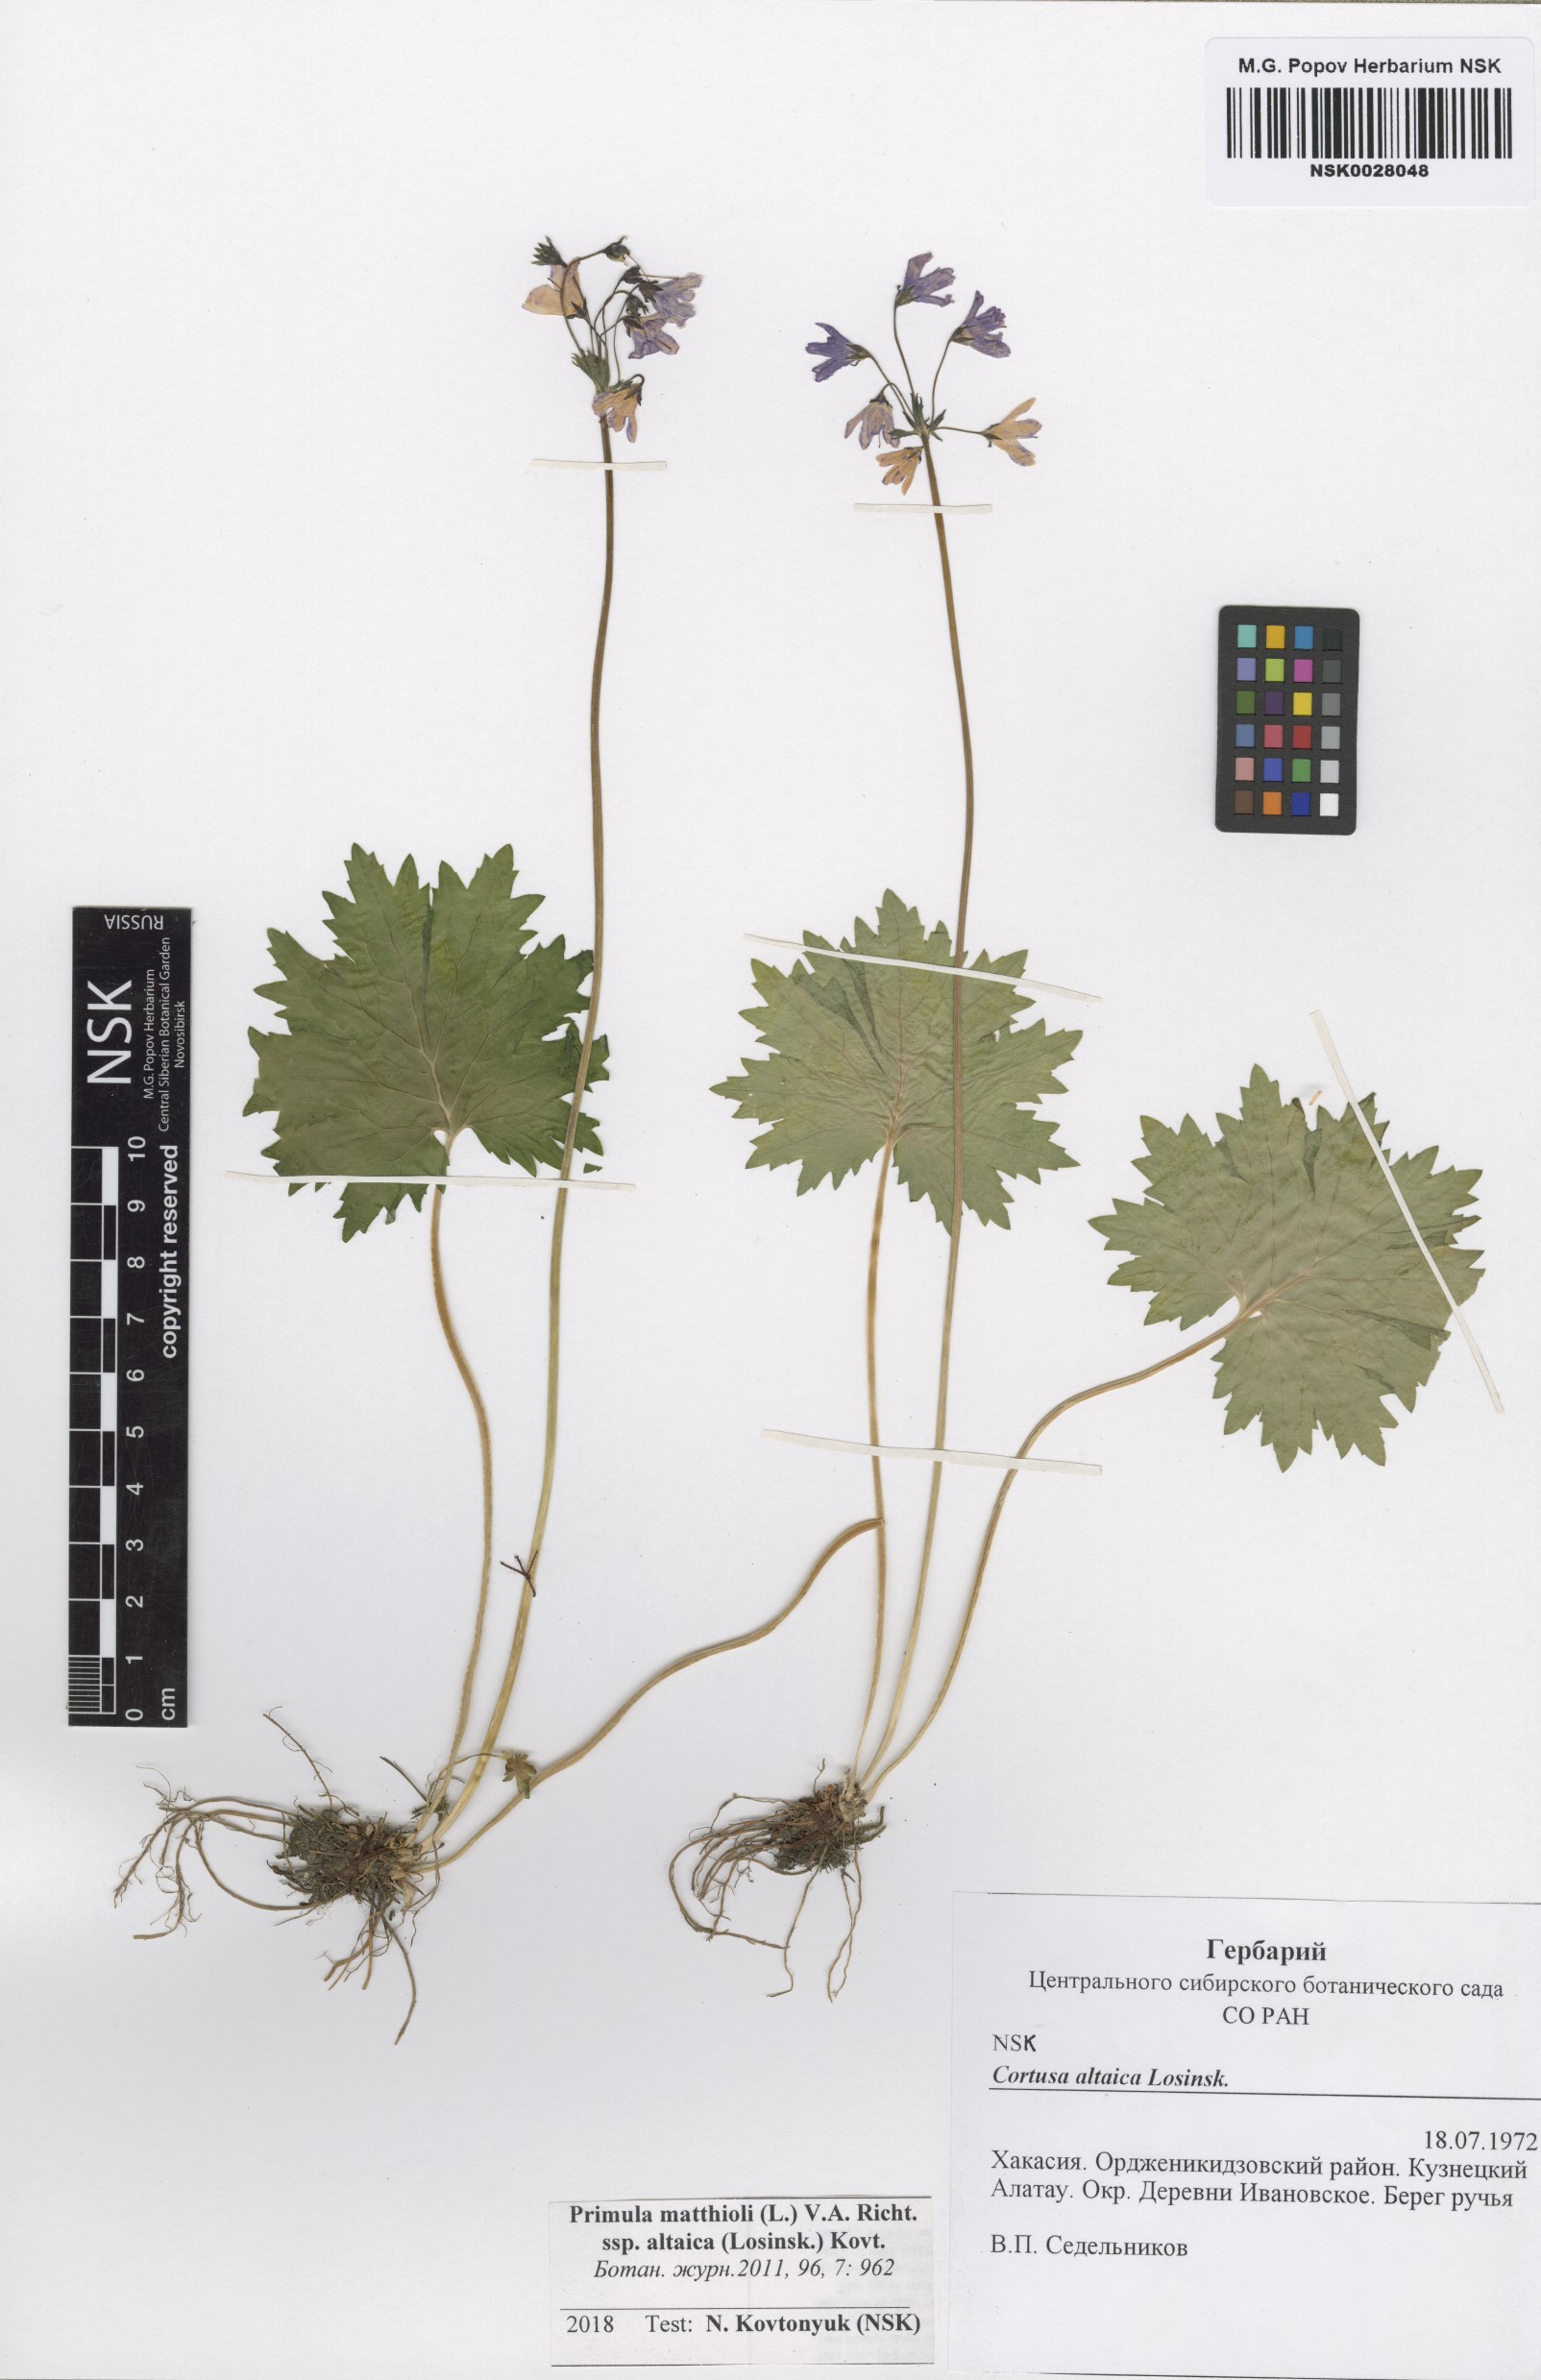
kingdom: Plantae
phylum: Tracheophyta
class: Magnoliopsida
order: Ericales
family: Primulaceae
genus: Primula
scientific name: Primula matthioli
